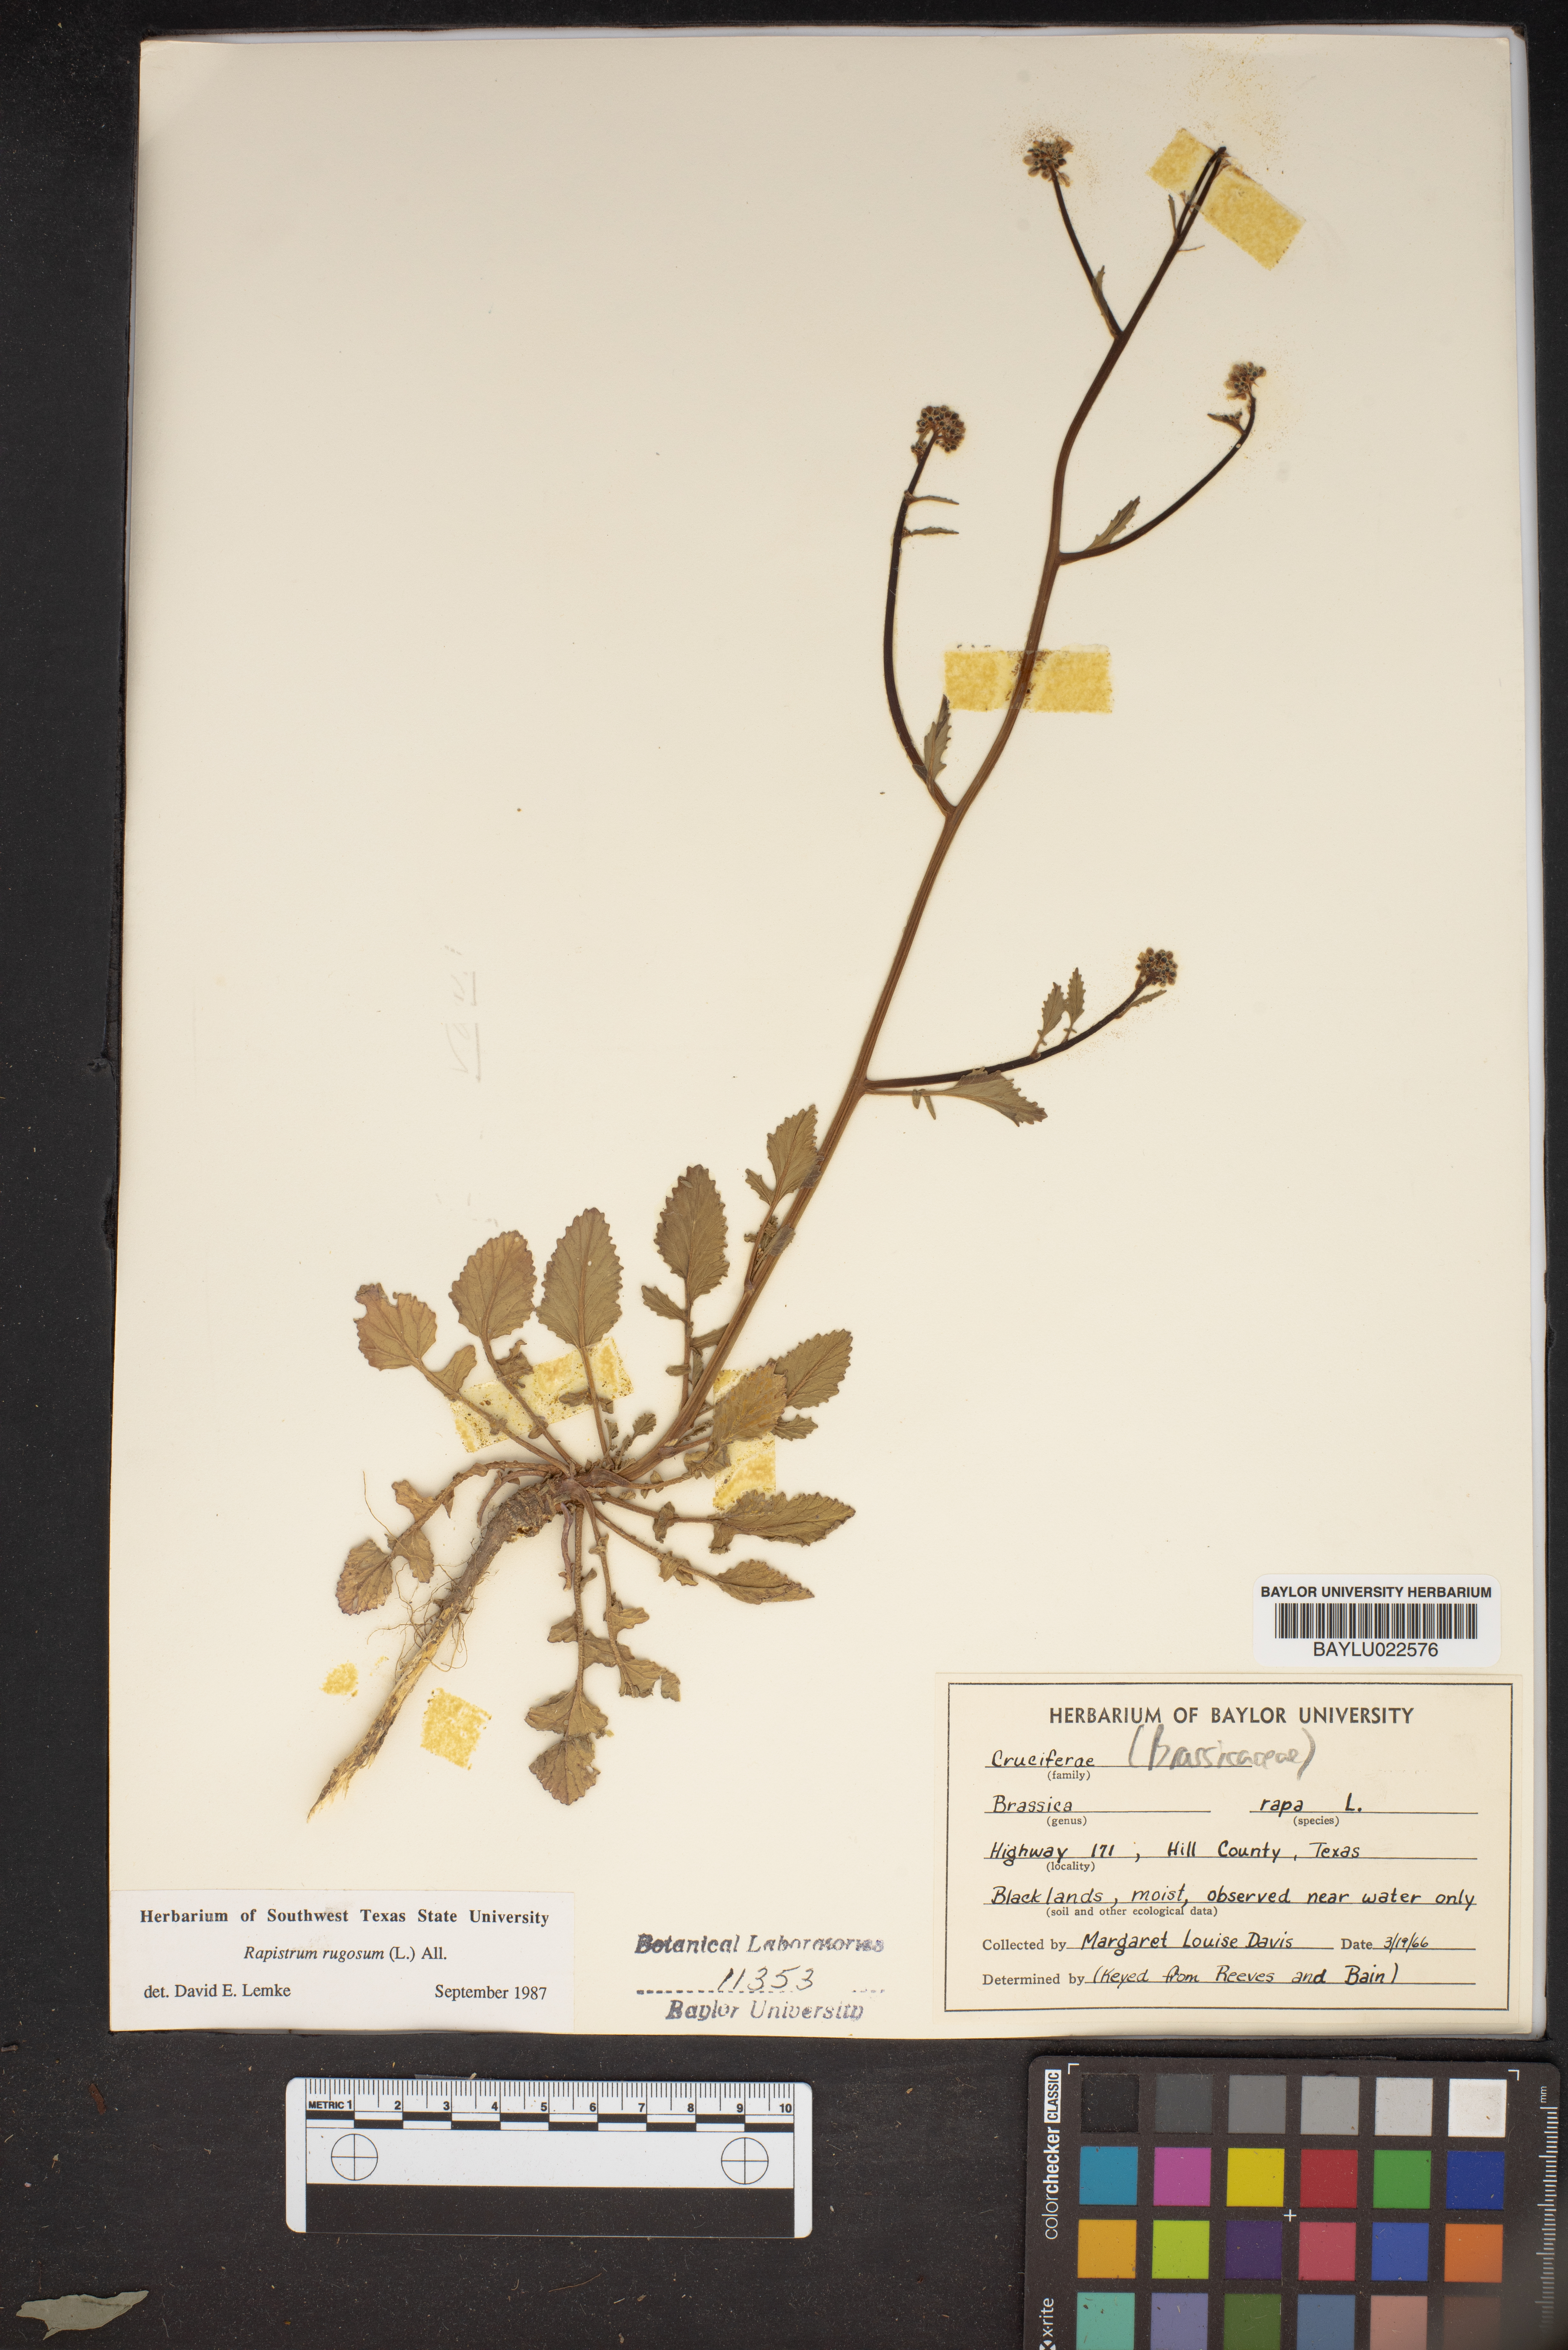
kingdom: Plantae
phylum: Tracheophyta
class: Magnoliopsida
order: Brassicales
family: Brassicaceae
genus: Rapistrum
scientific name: Rapistrum rugosum
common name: Annual bastardcabbage
